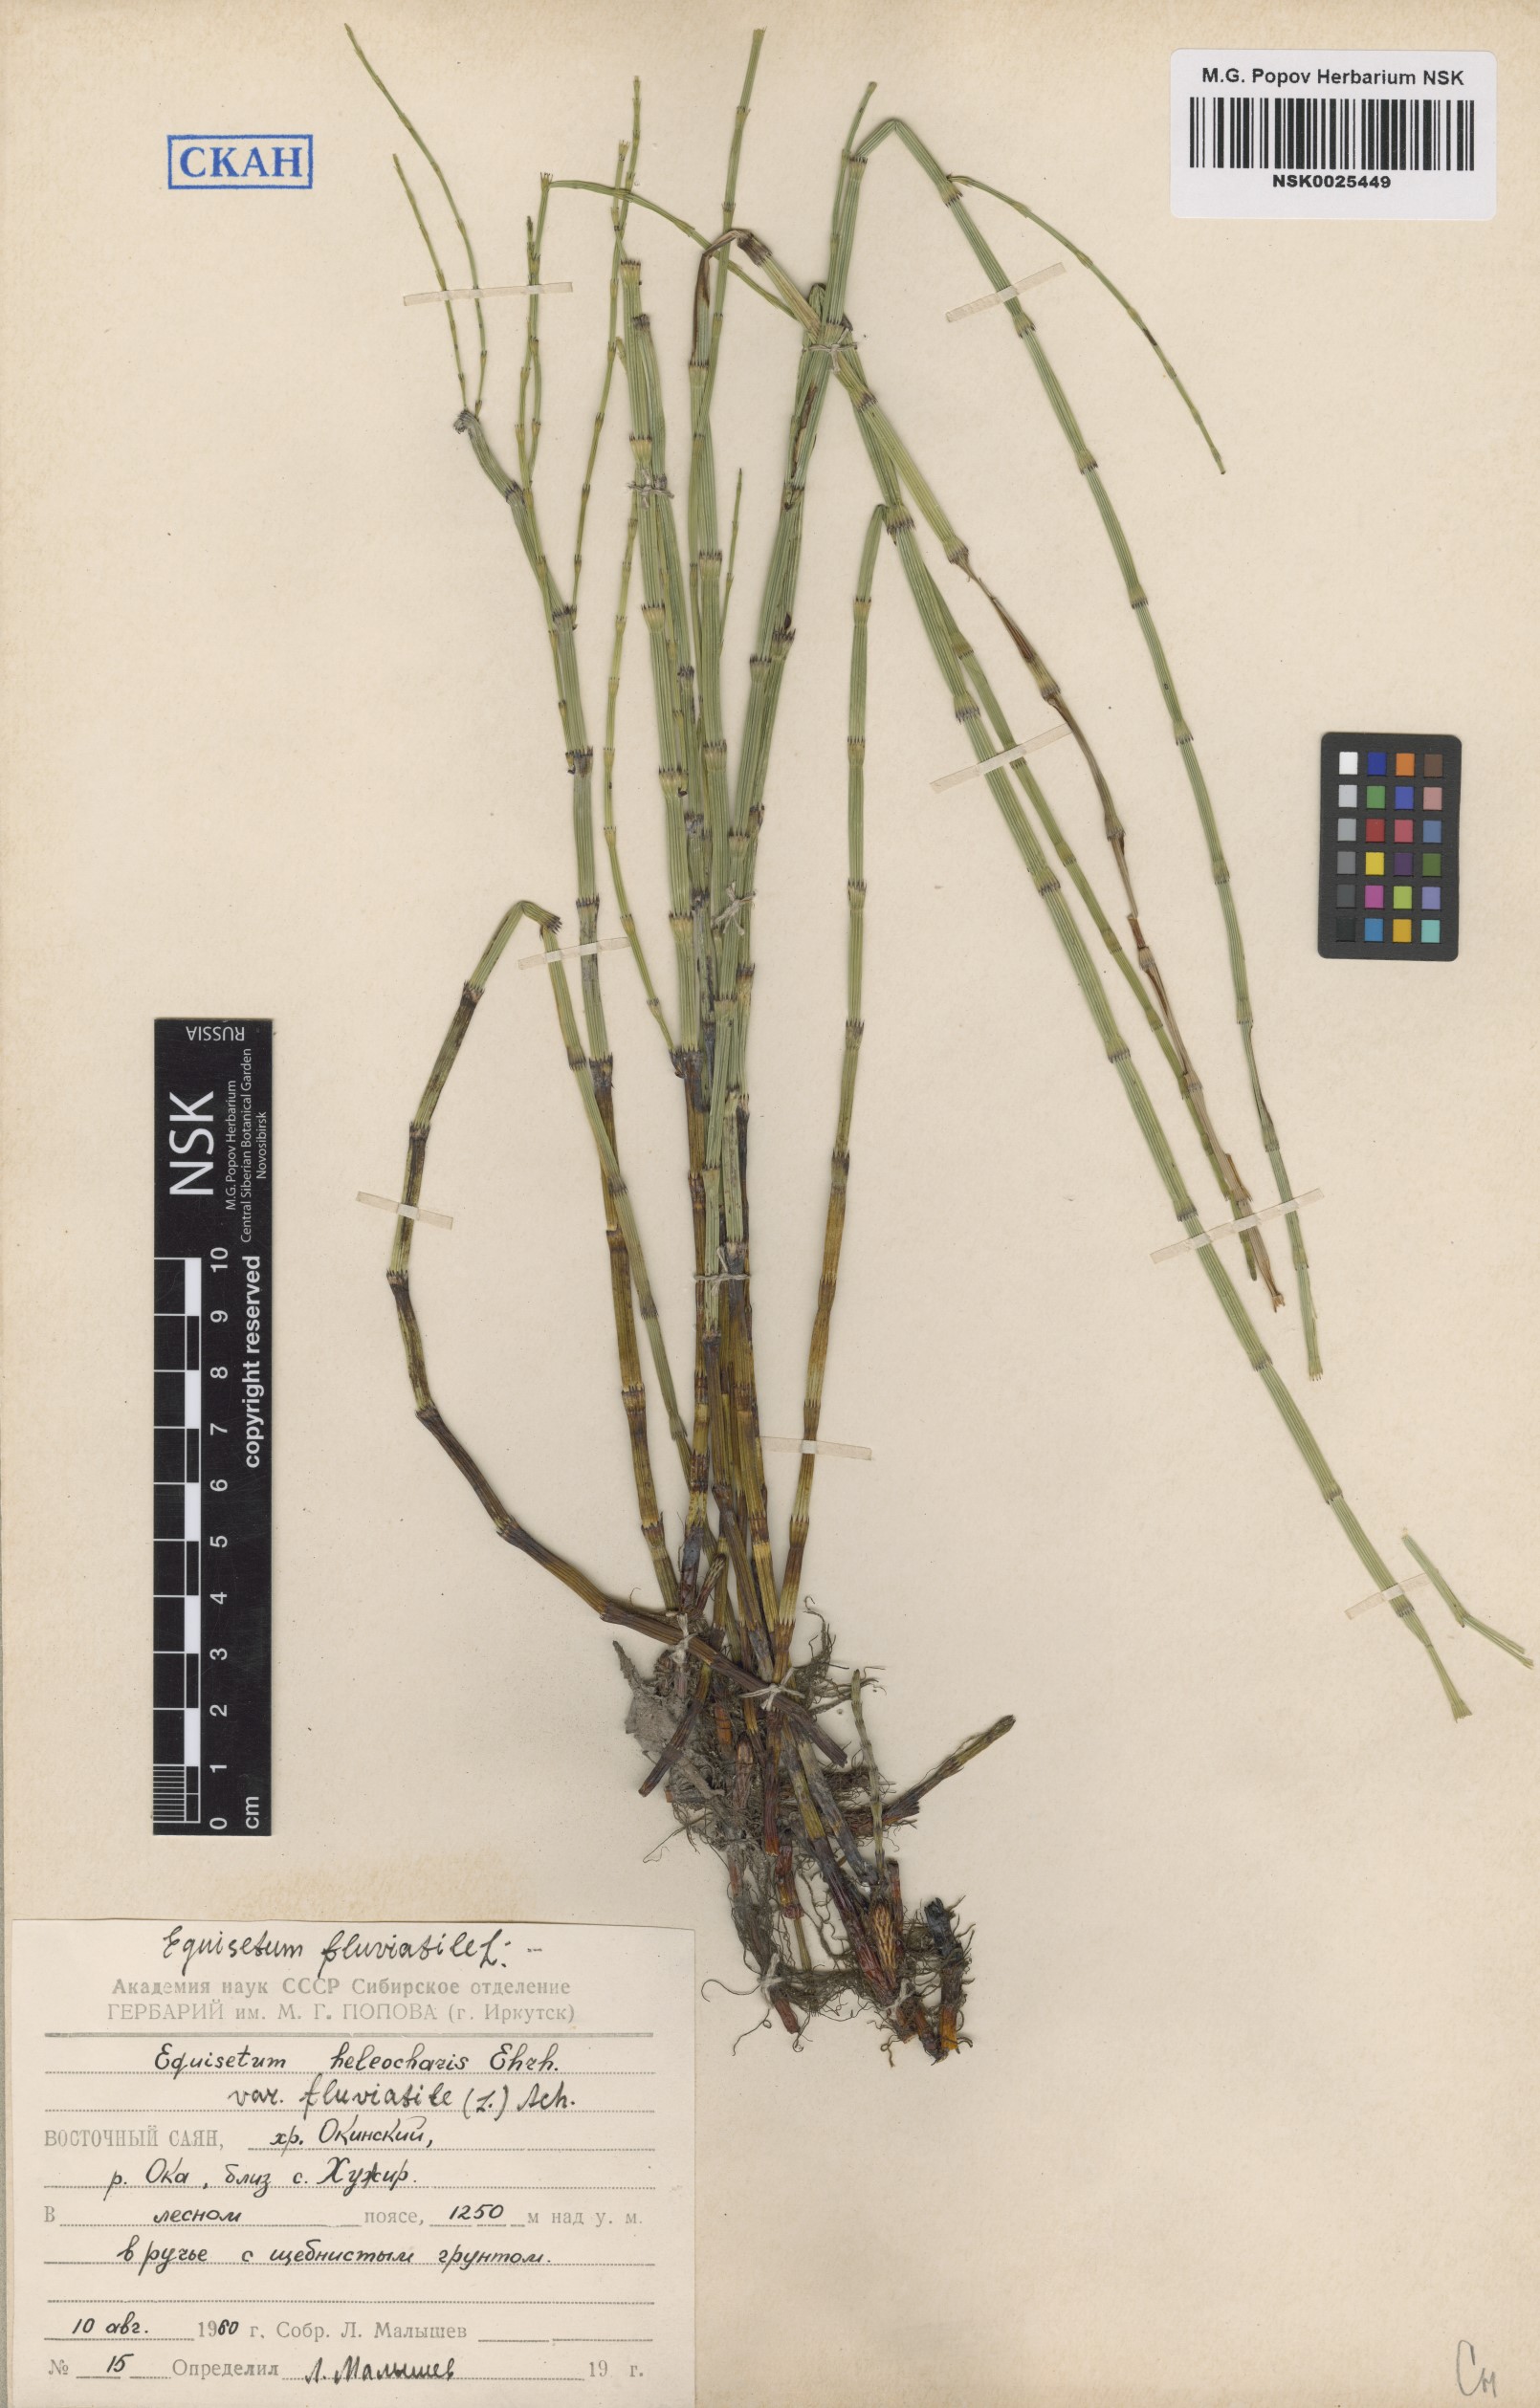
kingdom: Plantae
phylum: Tracheophyta
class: Polypodiopsida
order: Equisetales
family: Equisetaceae
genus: Equisetum
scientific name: Equisetum fluviatile
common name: Water horsetail
